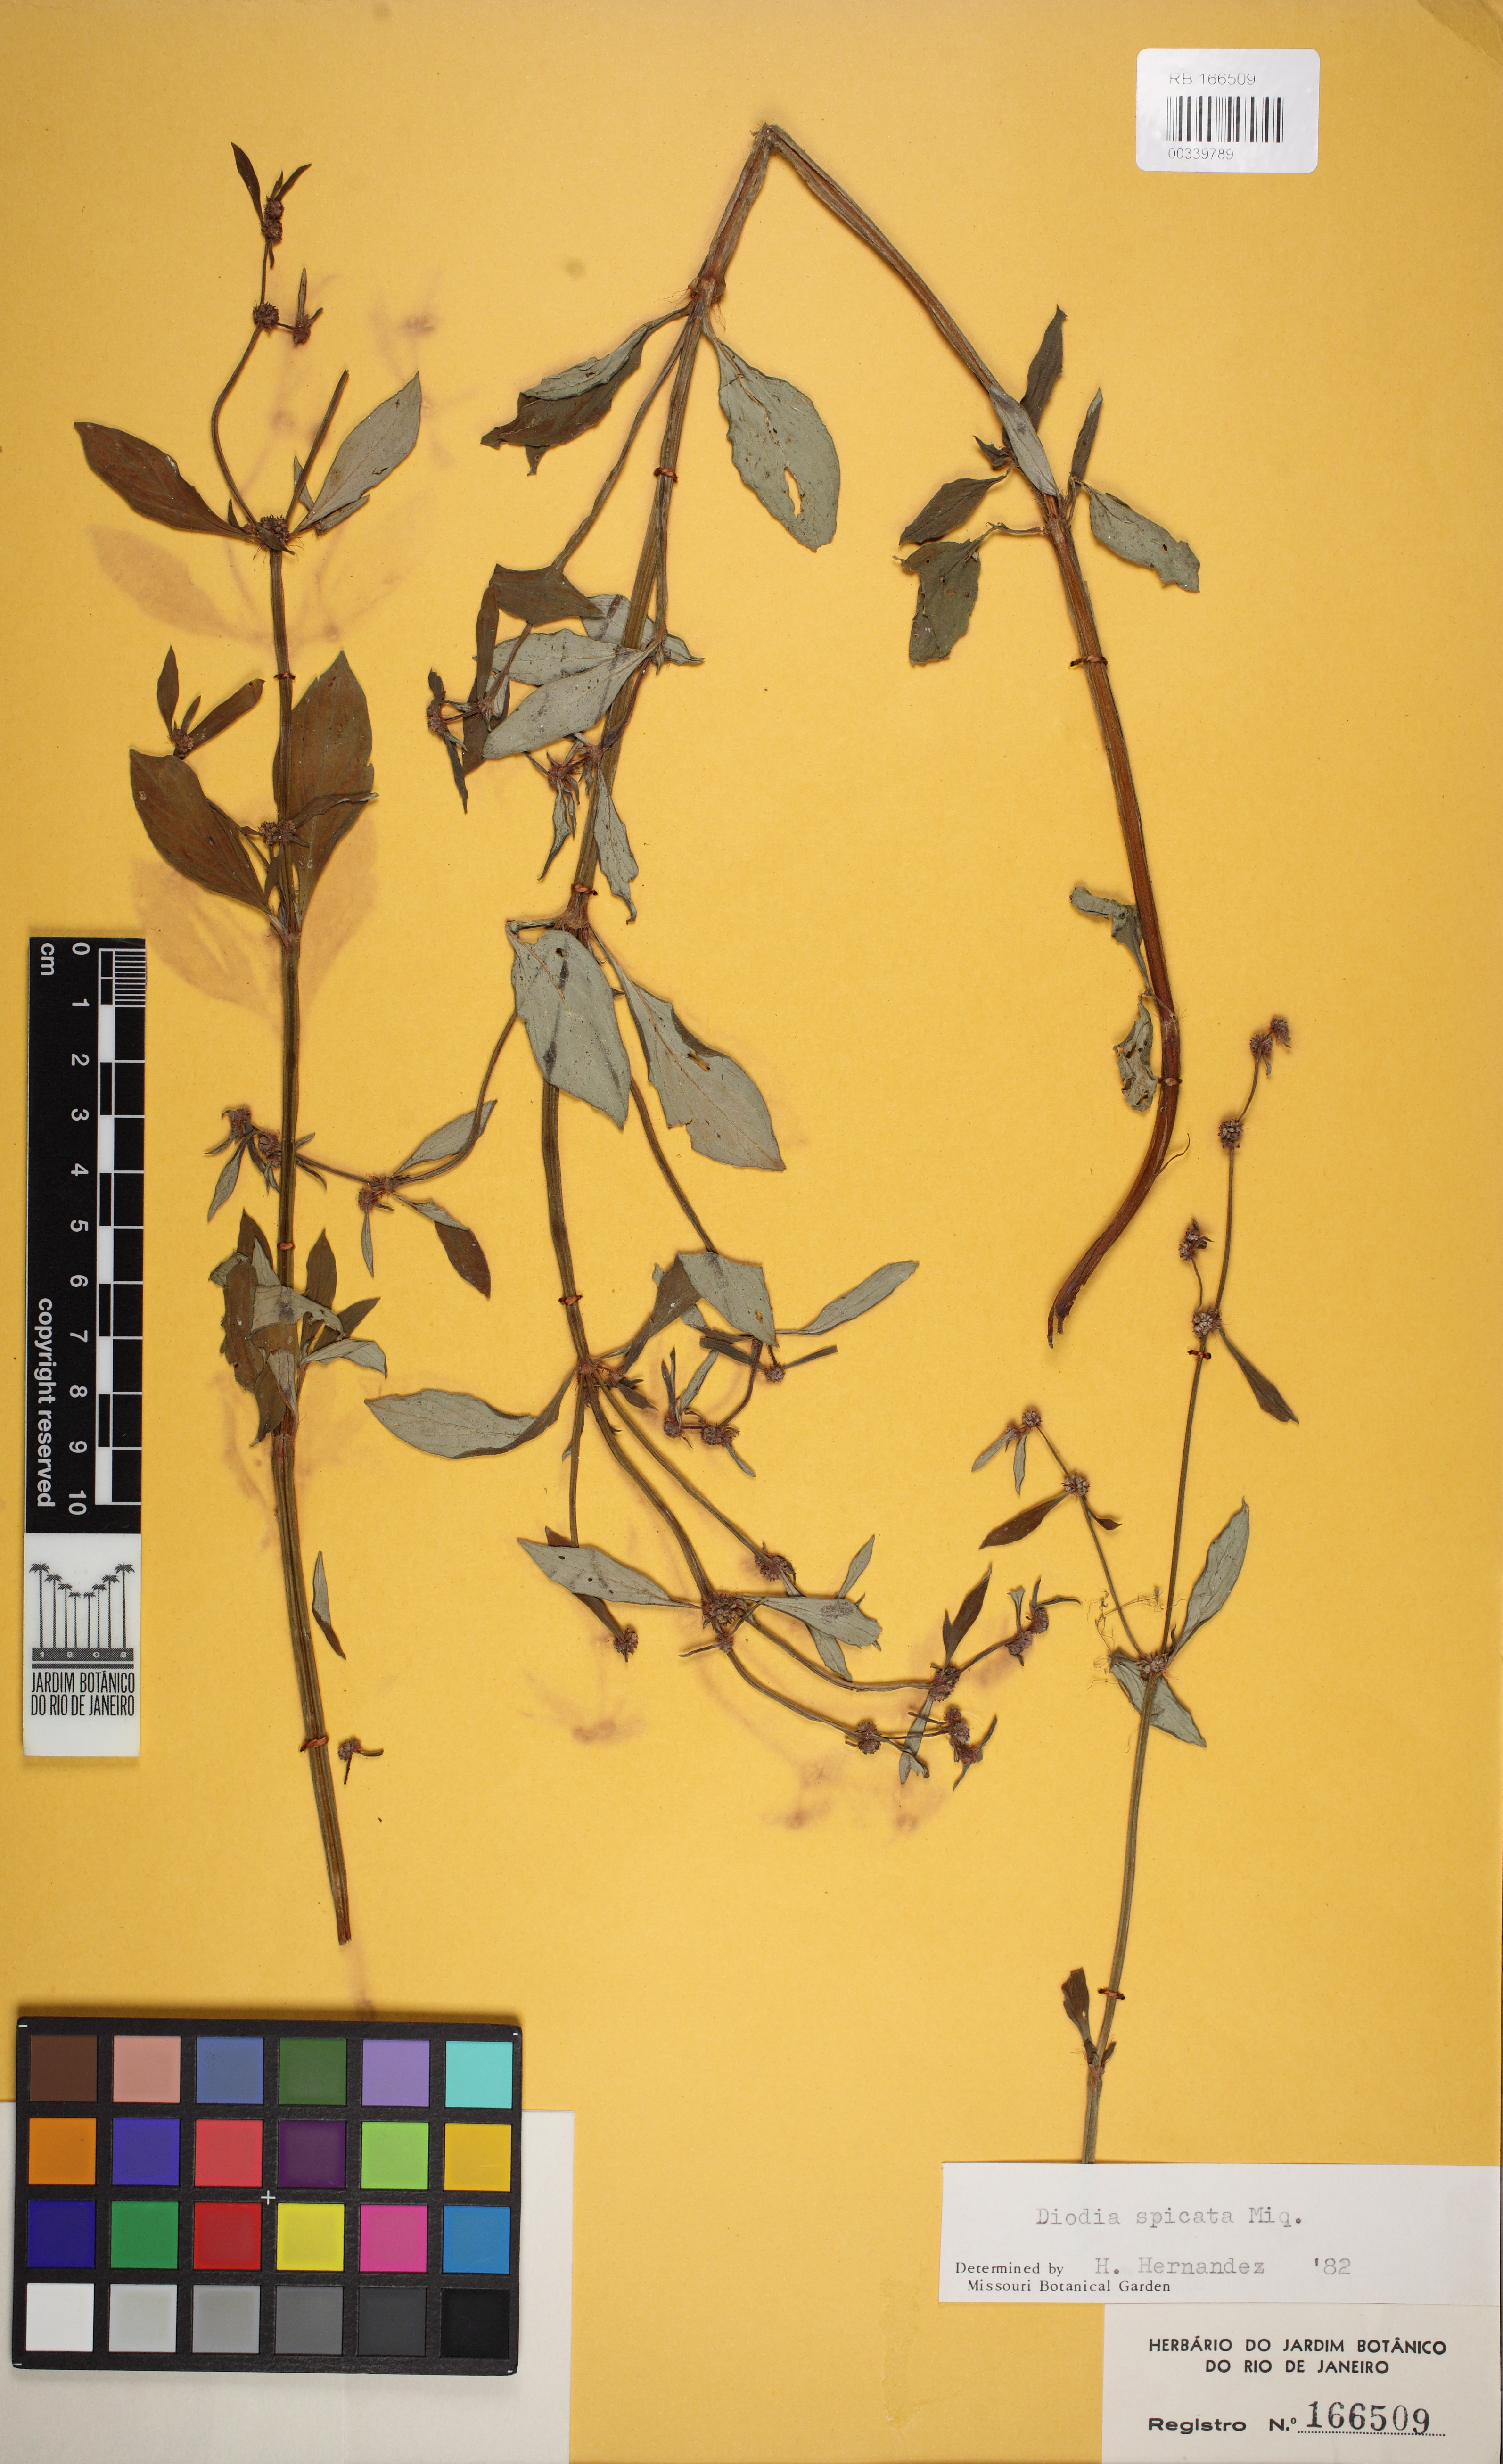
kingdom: Plantae
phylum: Tracheophyta
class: Magnoliopsida
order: Gentianales
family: Rubiaceae
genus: Galianthe
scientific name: Galianthe spicata
